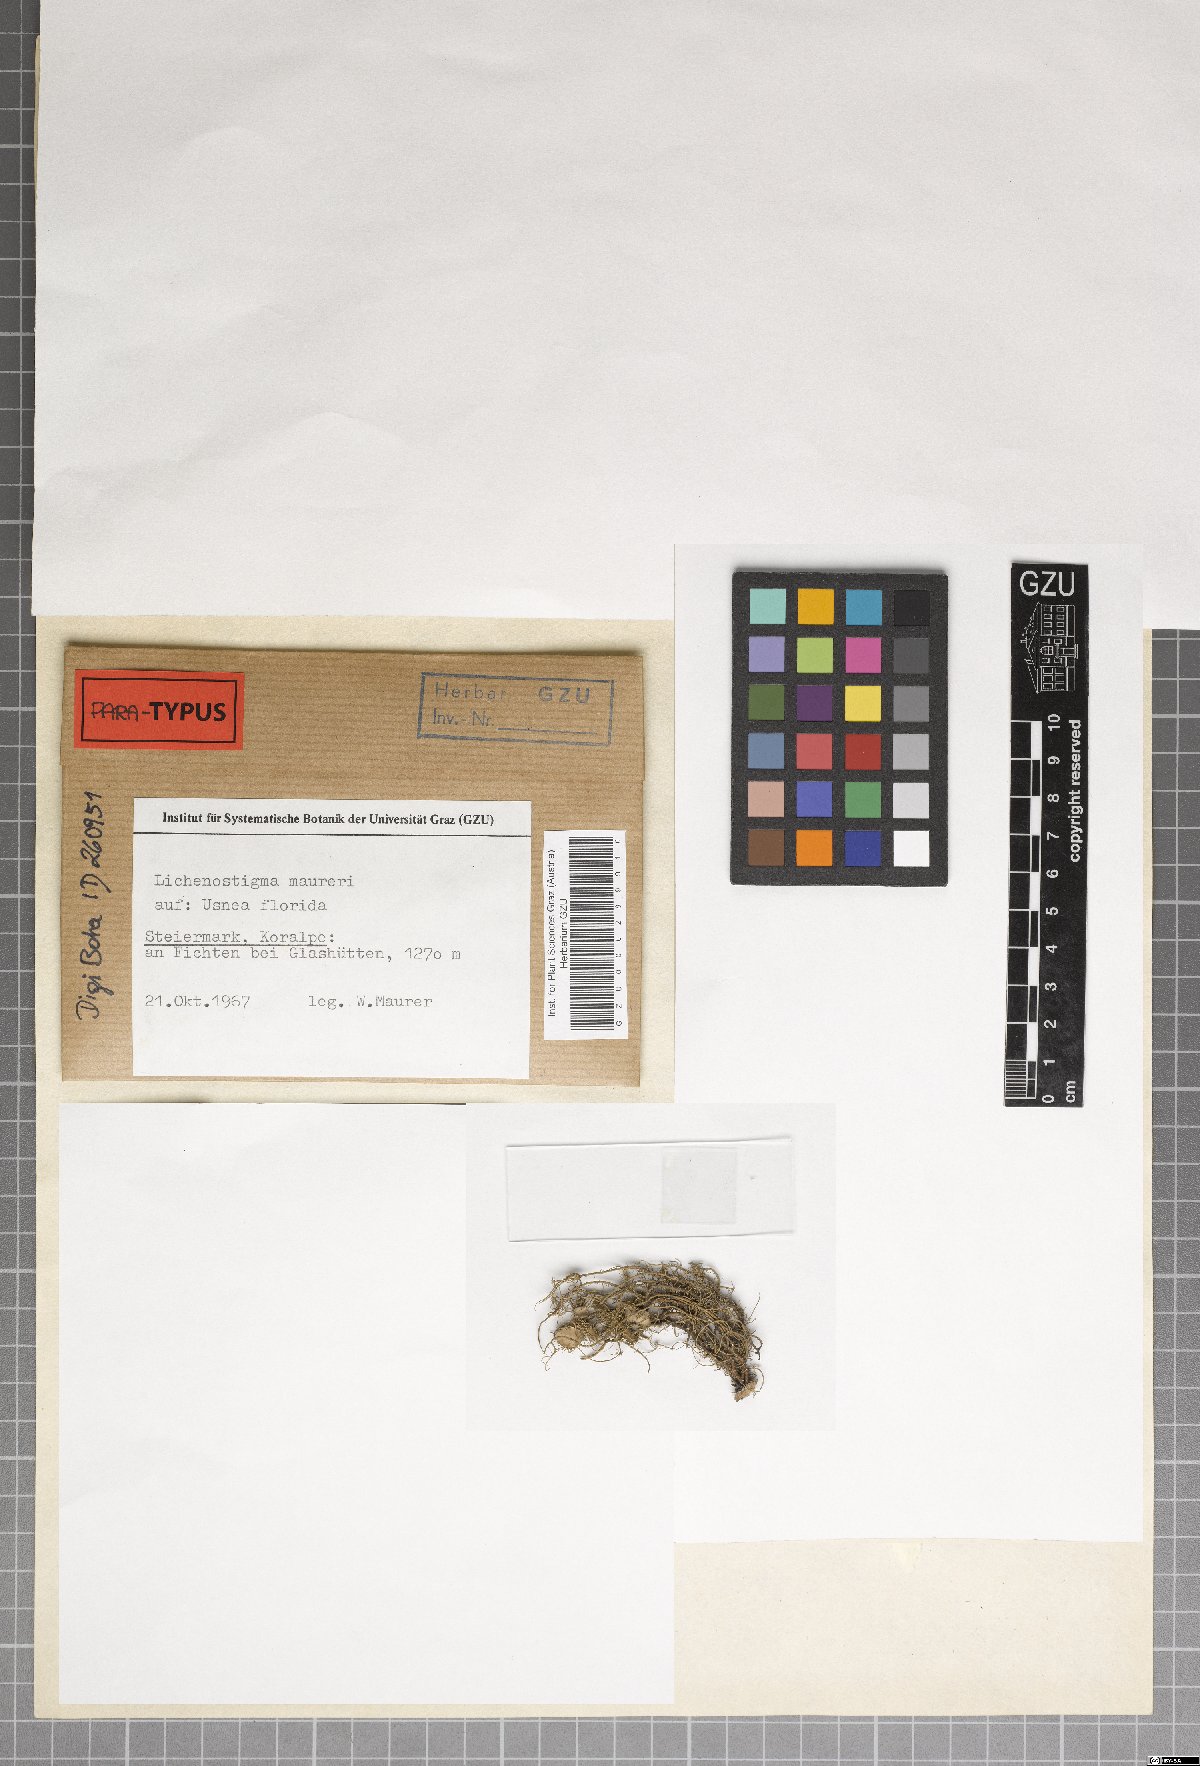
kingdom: Fungi
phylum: Ascomycota
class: Arthoniomycetes
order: Lichenostigmatales
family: Phaeococcomycetaceae
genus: Lichenostigma
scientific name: Lichenostigma maureri
